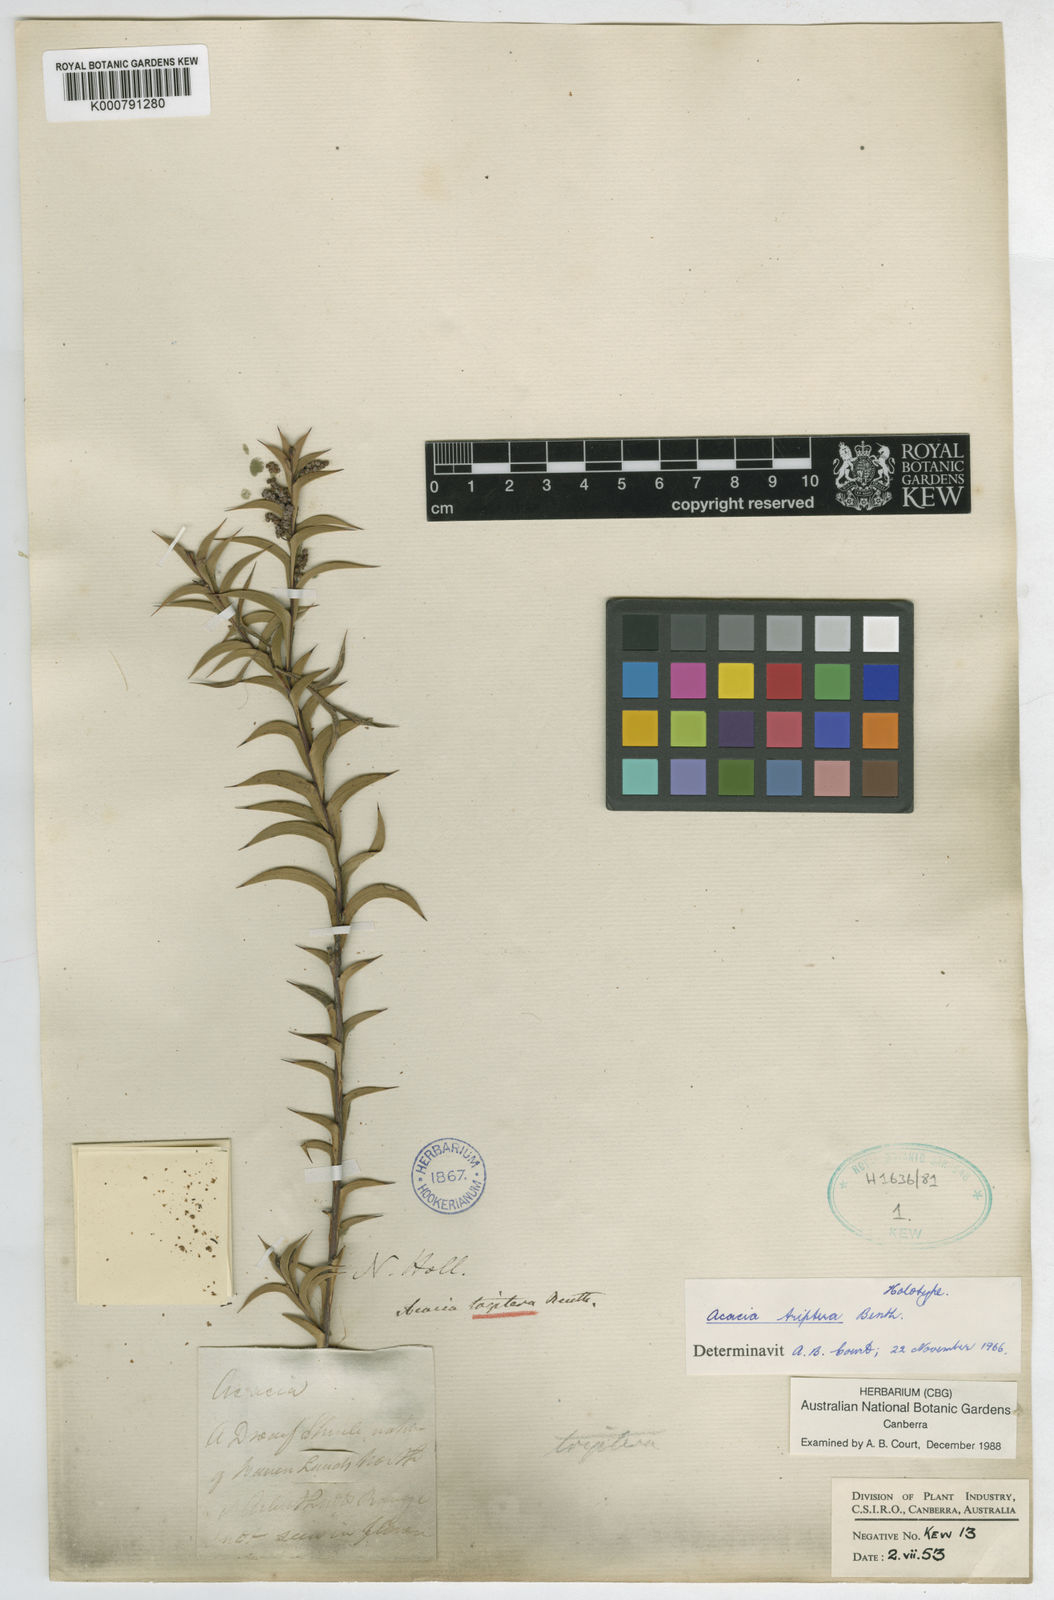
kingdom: Plantae
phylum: Tracheophyta
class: Magnoliopsida
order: Fabales
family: Fabaceae
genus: Acacia
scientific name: Acacia triptera
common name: Spur-wing wattle
